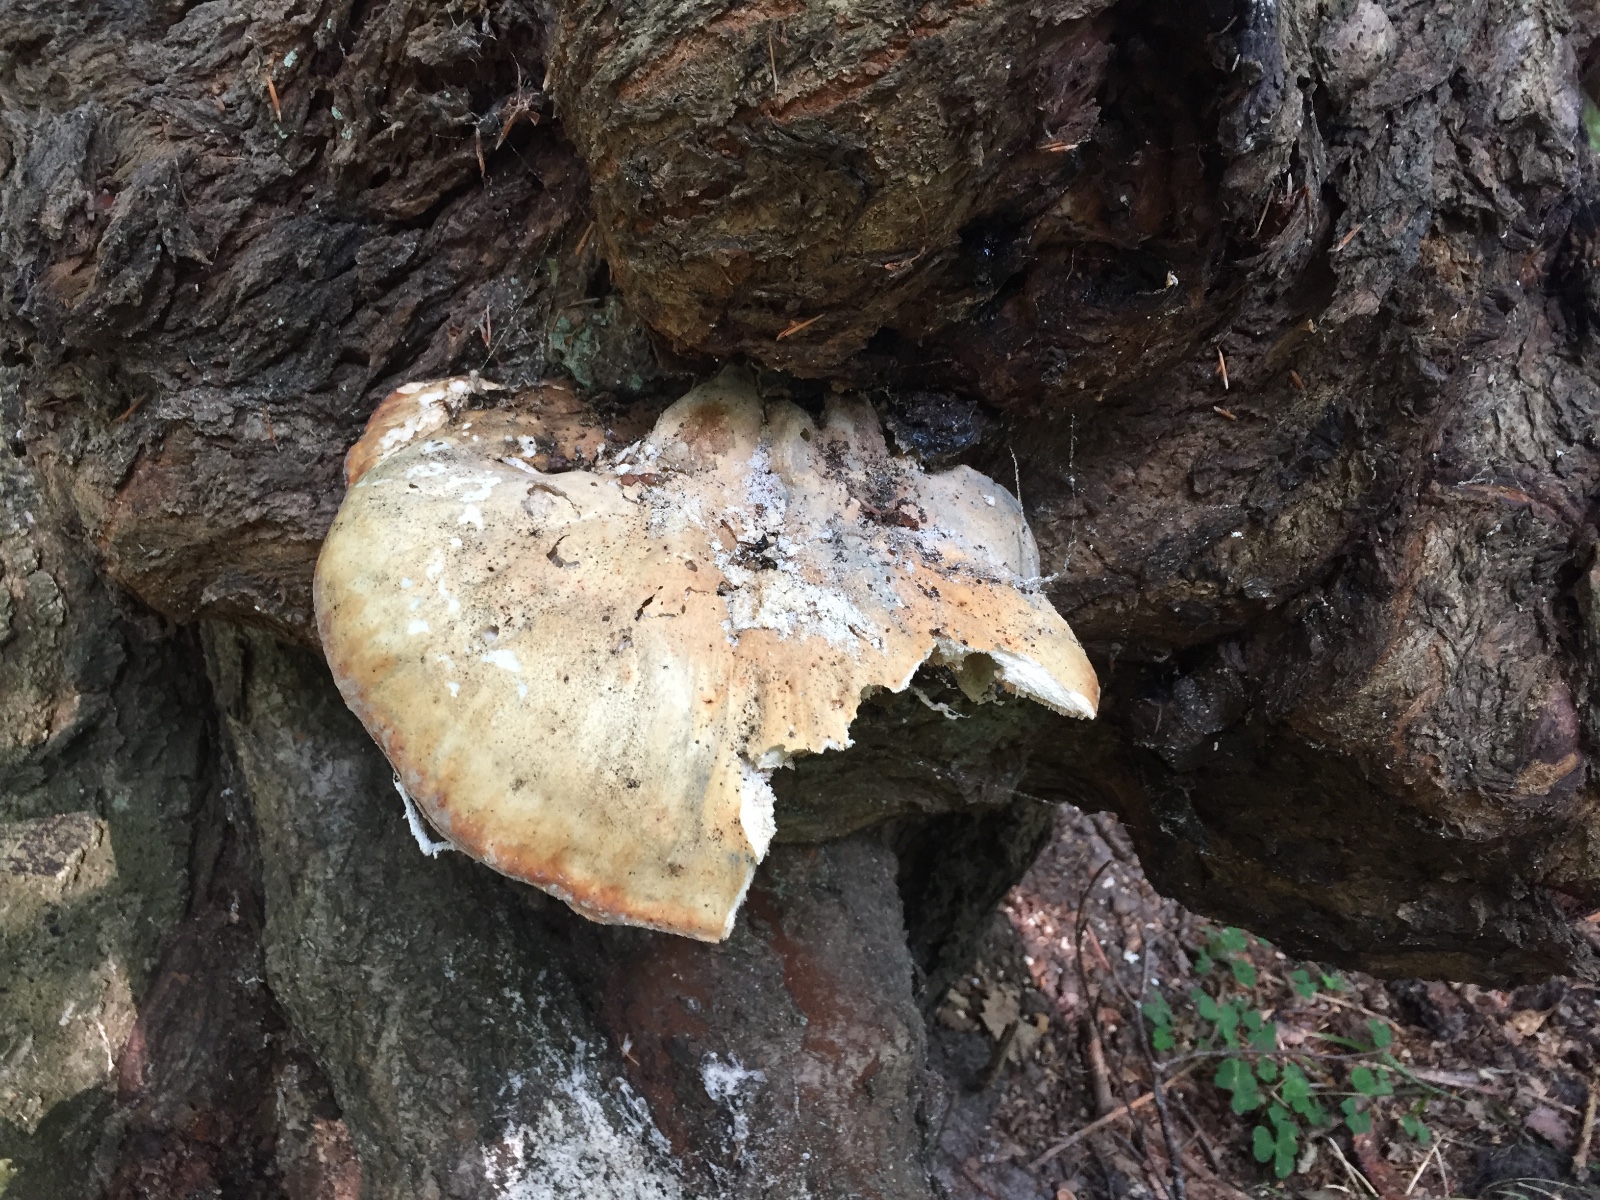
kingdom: Fungi
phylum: Basidiomycota
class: Agaricomycetes
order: Polyporales
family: Laetiporaceae
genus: Laetiporus
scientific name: Laetiporus sulphureus
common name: svovlporesvamp
